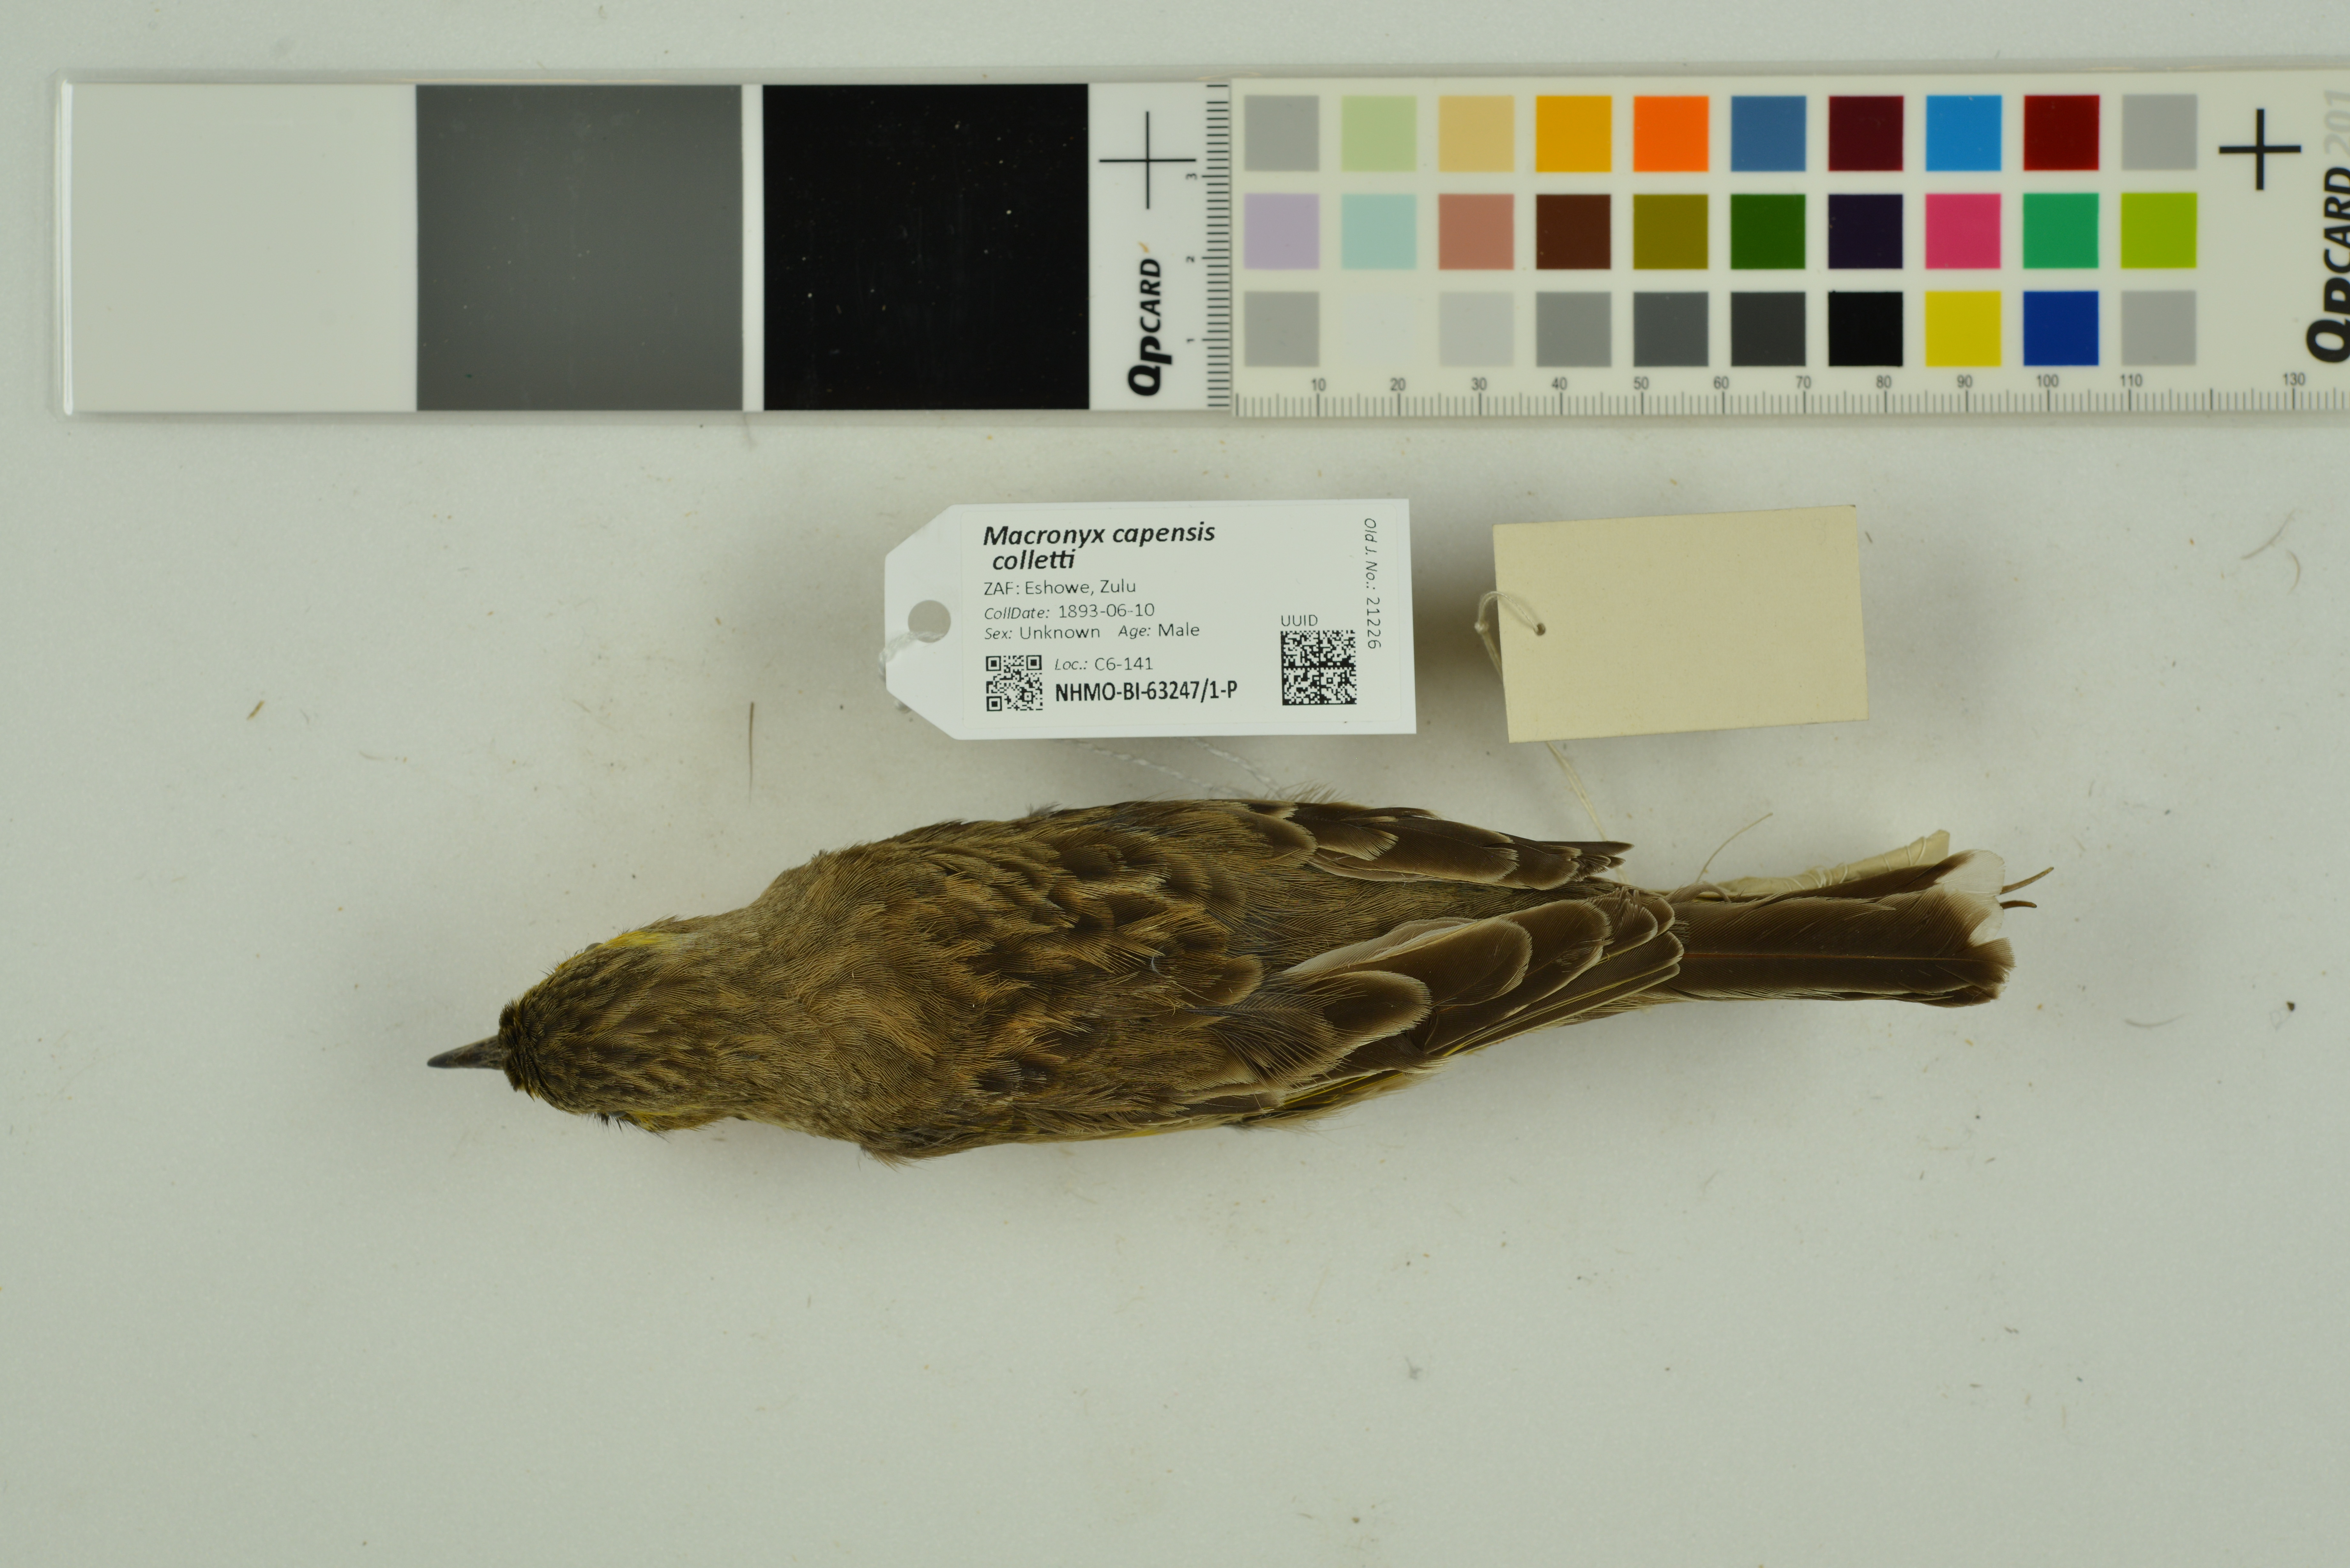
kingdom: Animalia
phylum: Chordata
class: Aves
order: Passeriformes
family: Motacillidae
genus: Macronyx
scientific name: Macronyx capensis
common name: Cape longclaw
